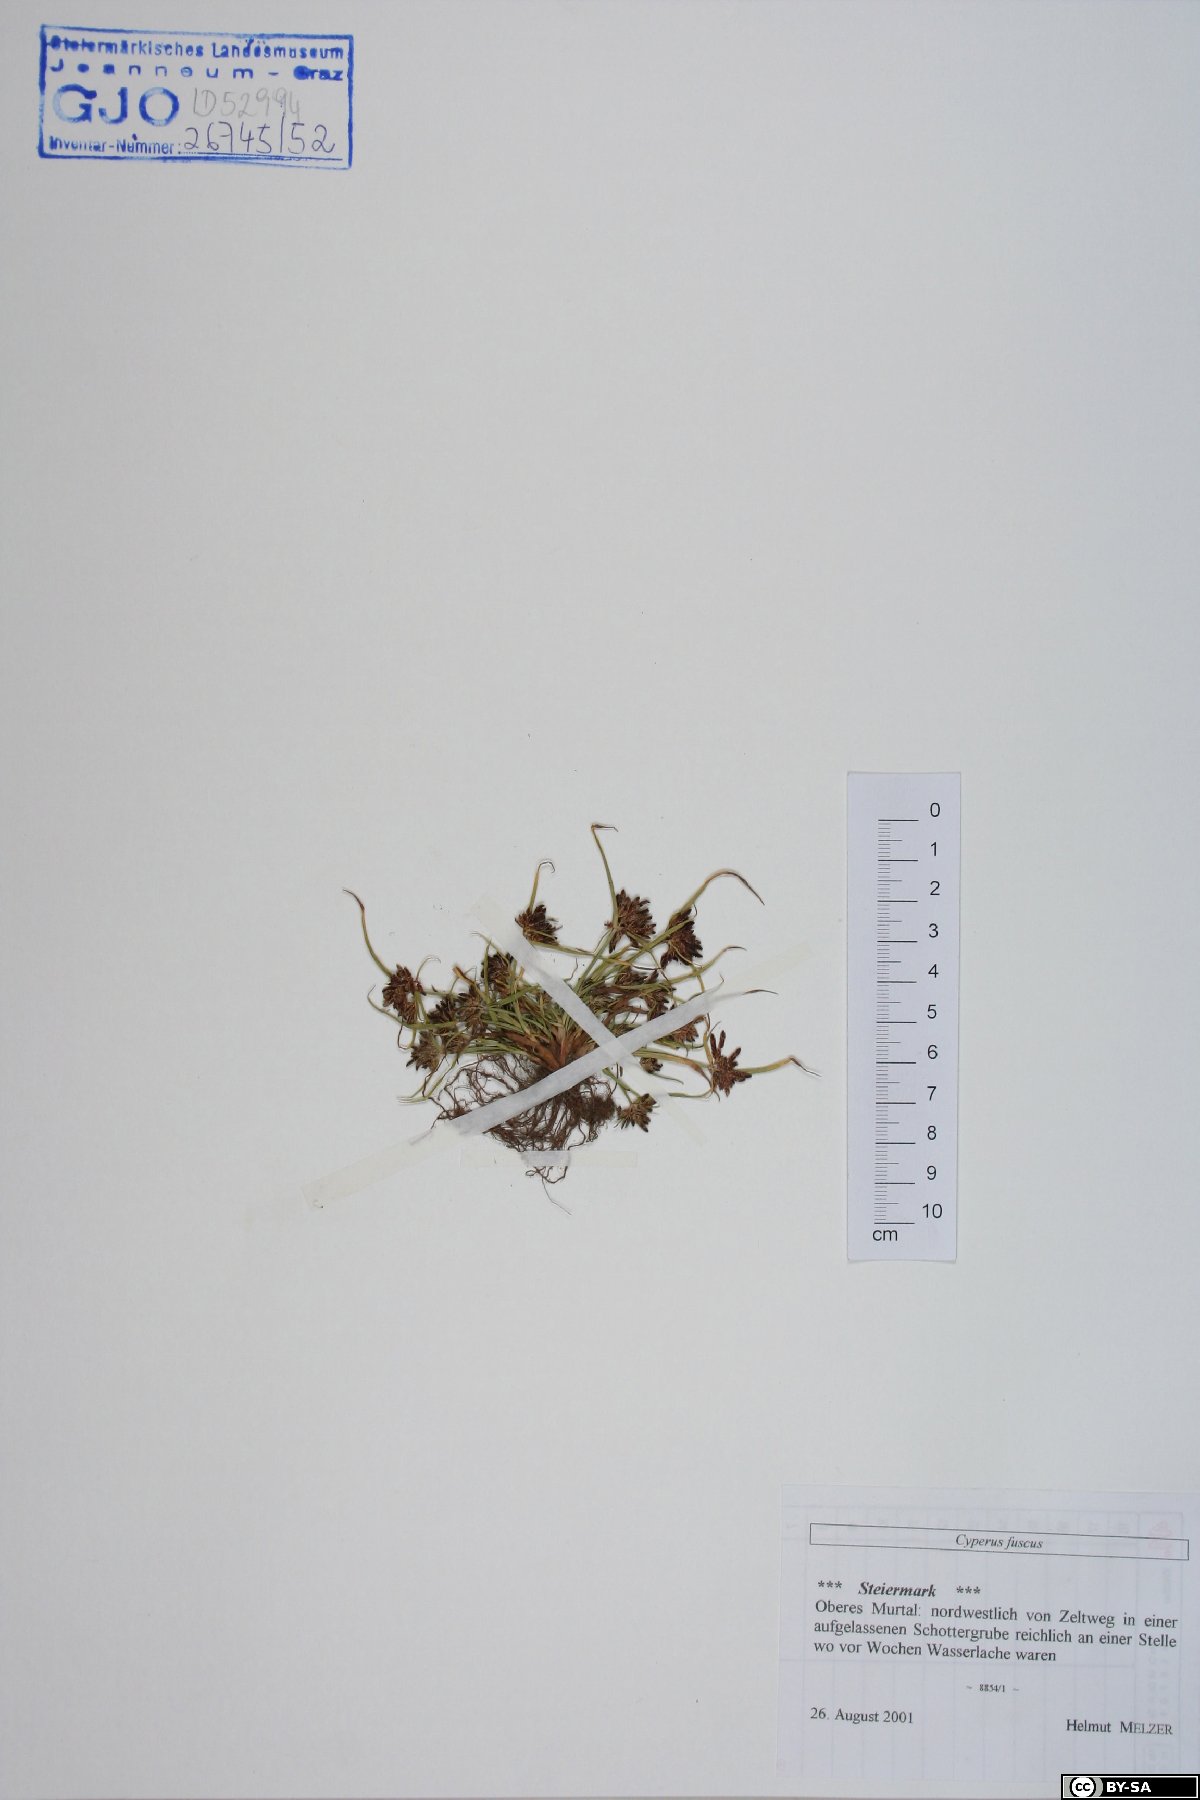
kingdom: Plantae
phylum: Tracheophyta
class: Liliopsida
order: Poales
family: Cyperaceae
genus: Cyperus
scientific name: Cyperus fuscus
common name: Brown galingale
